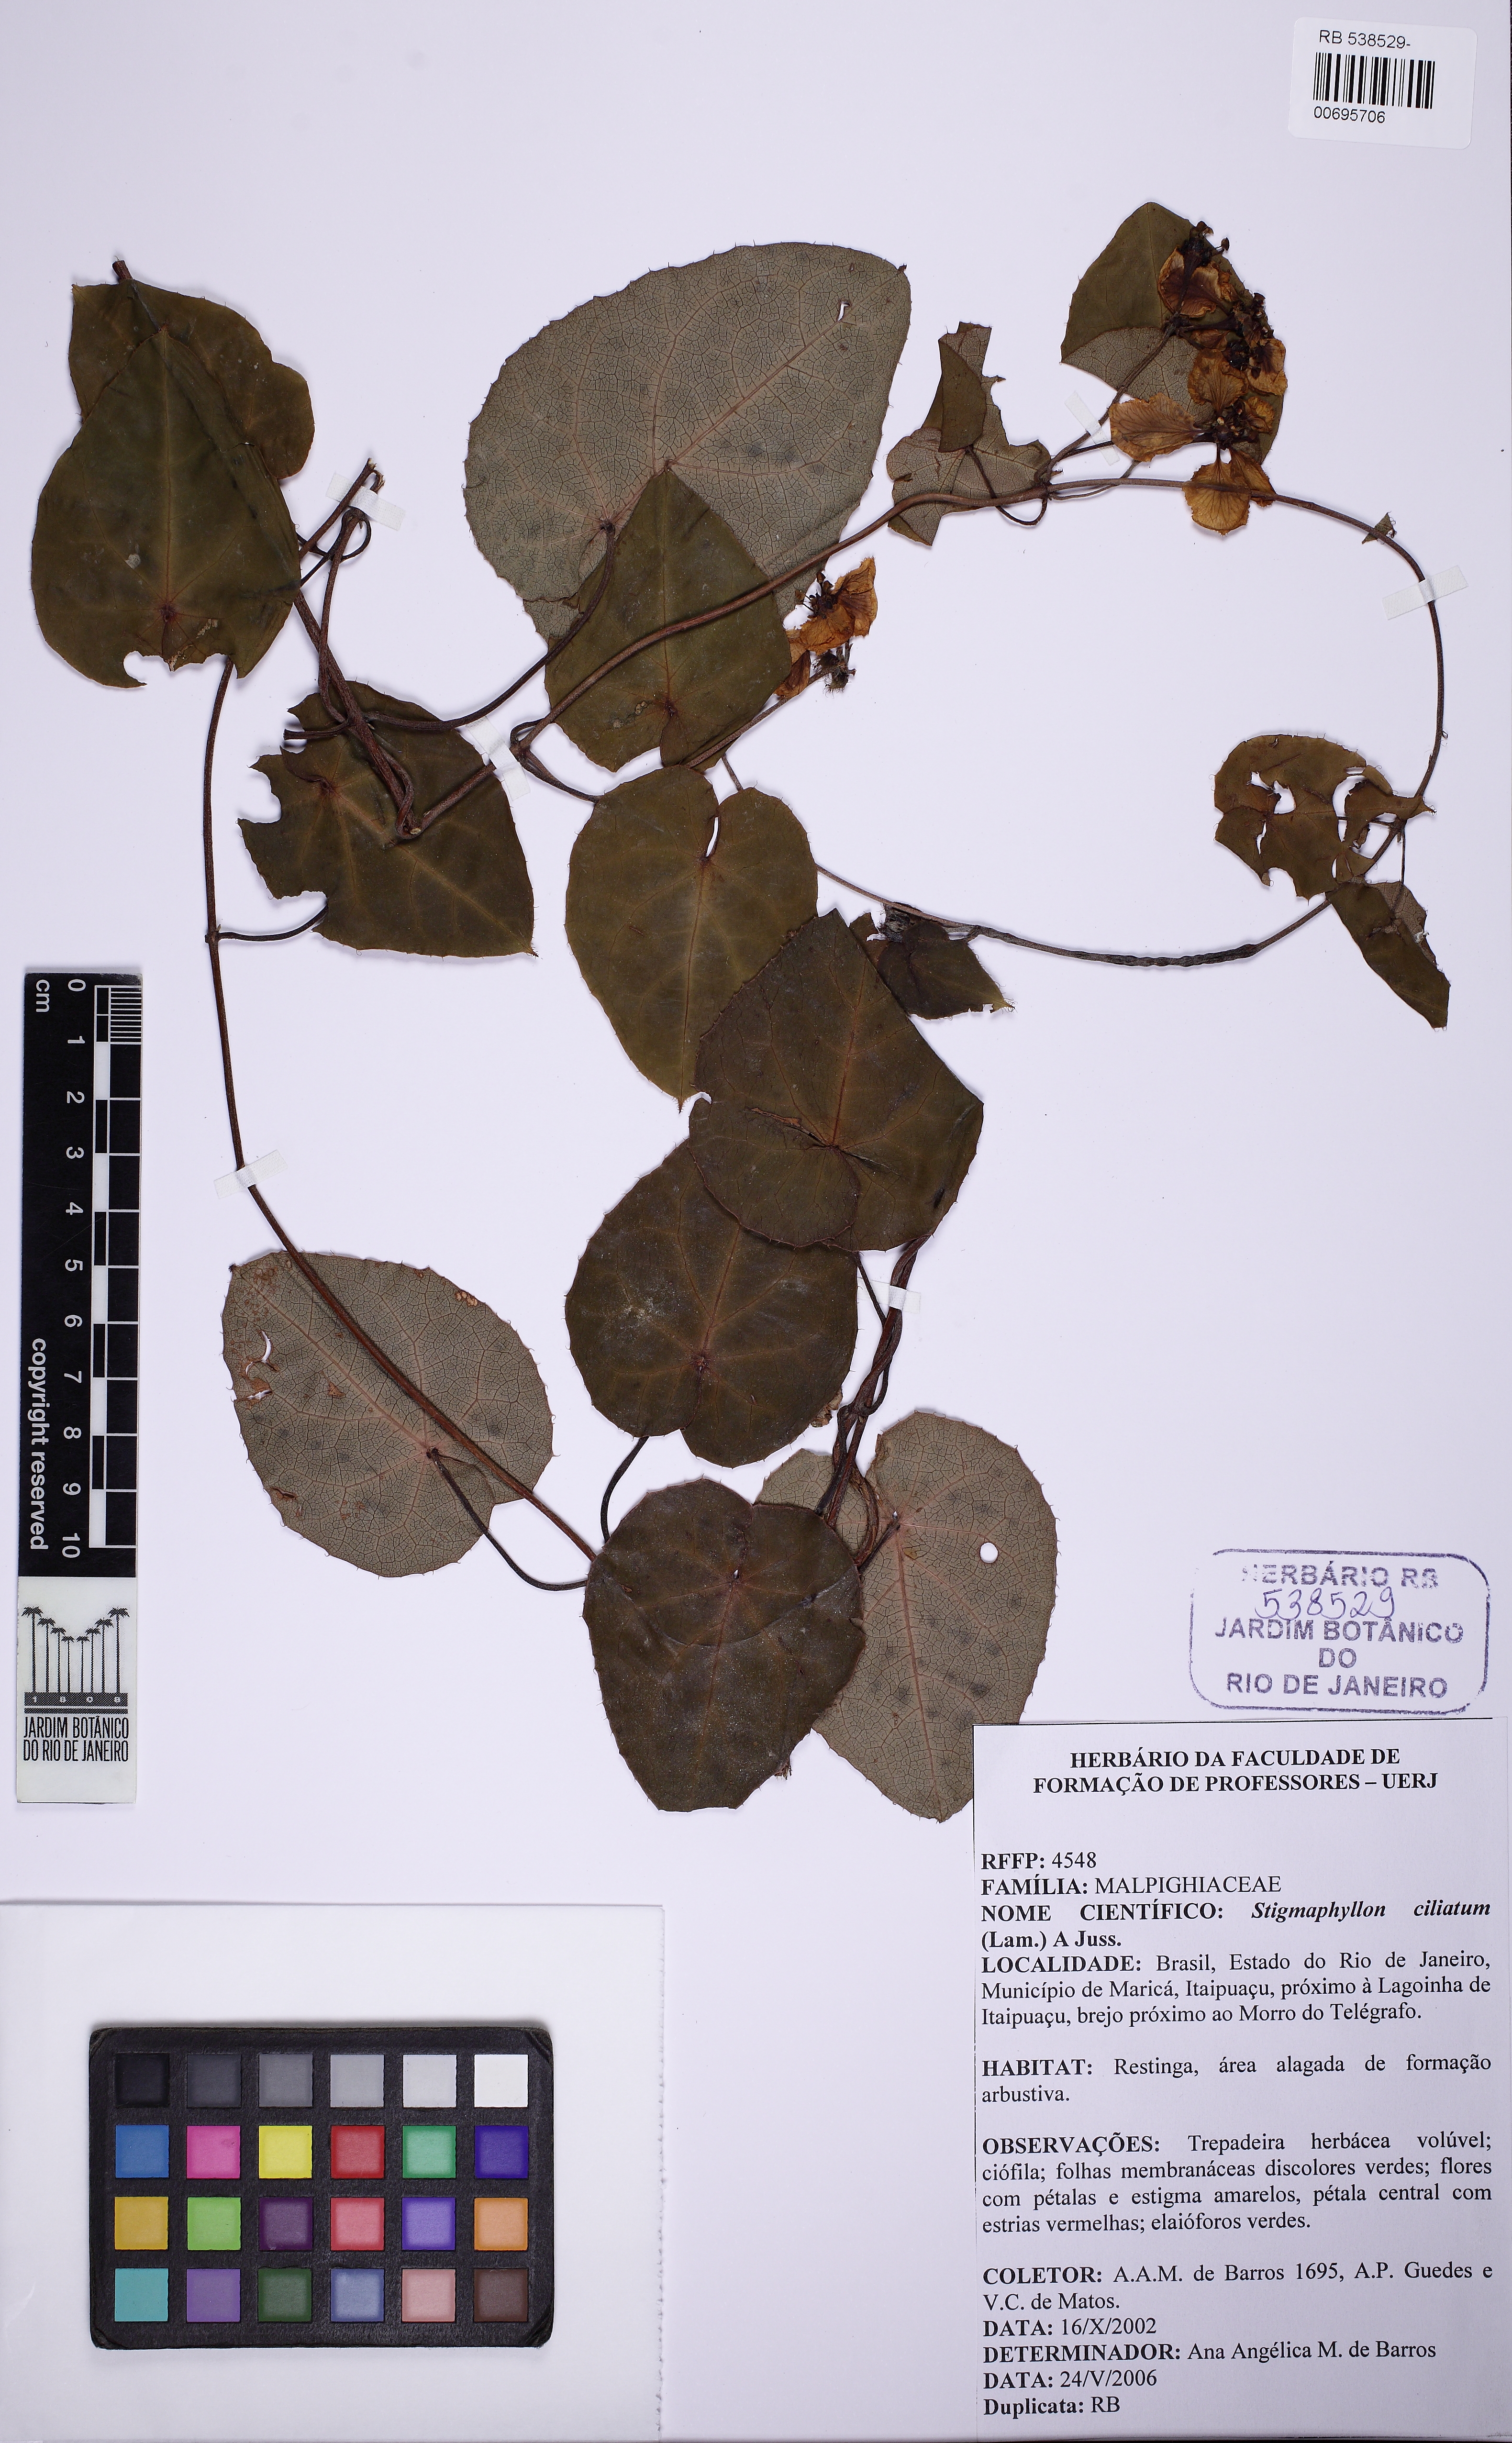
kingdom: Plantae
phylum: Tracheophyta
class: Magnoliopsida
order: Malpighiales
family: Malpighiaceae
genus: Stigmaphyllon
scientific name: Stigmaphyllon ciliatum
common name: Amazonvine
